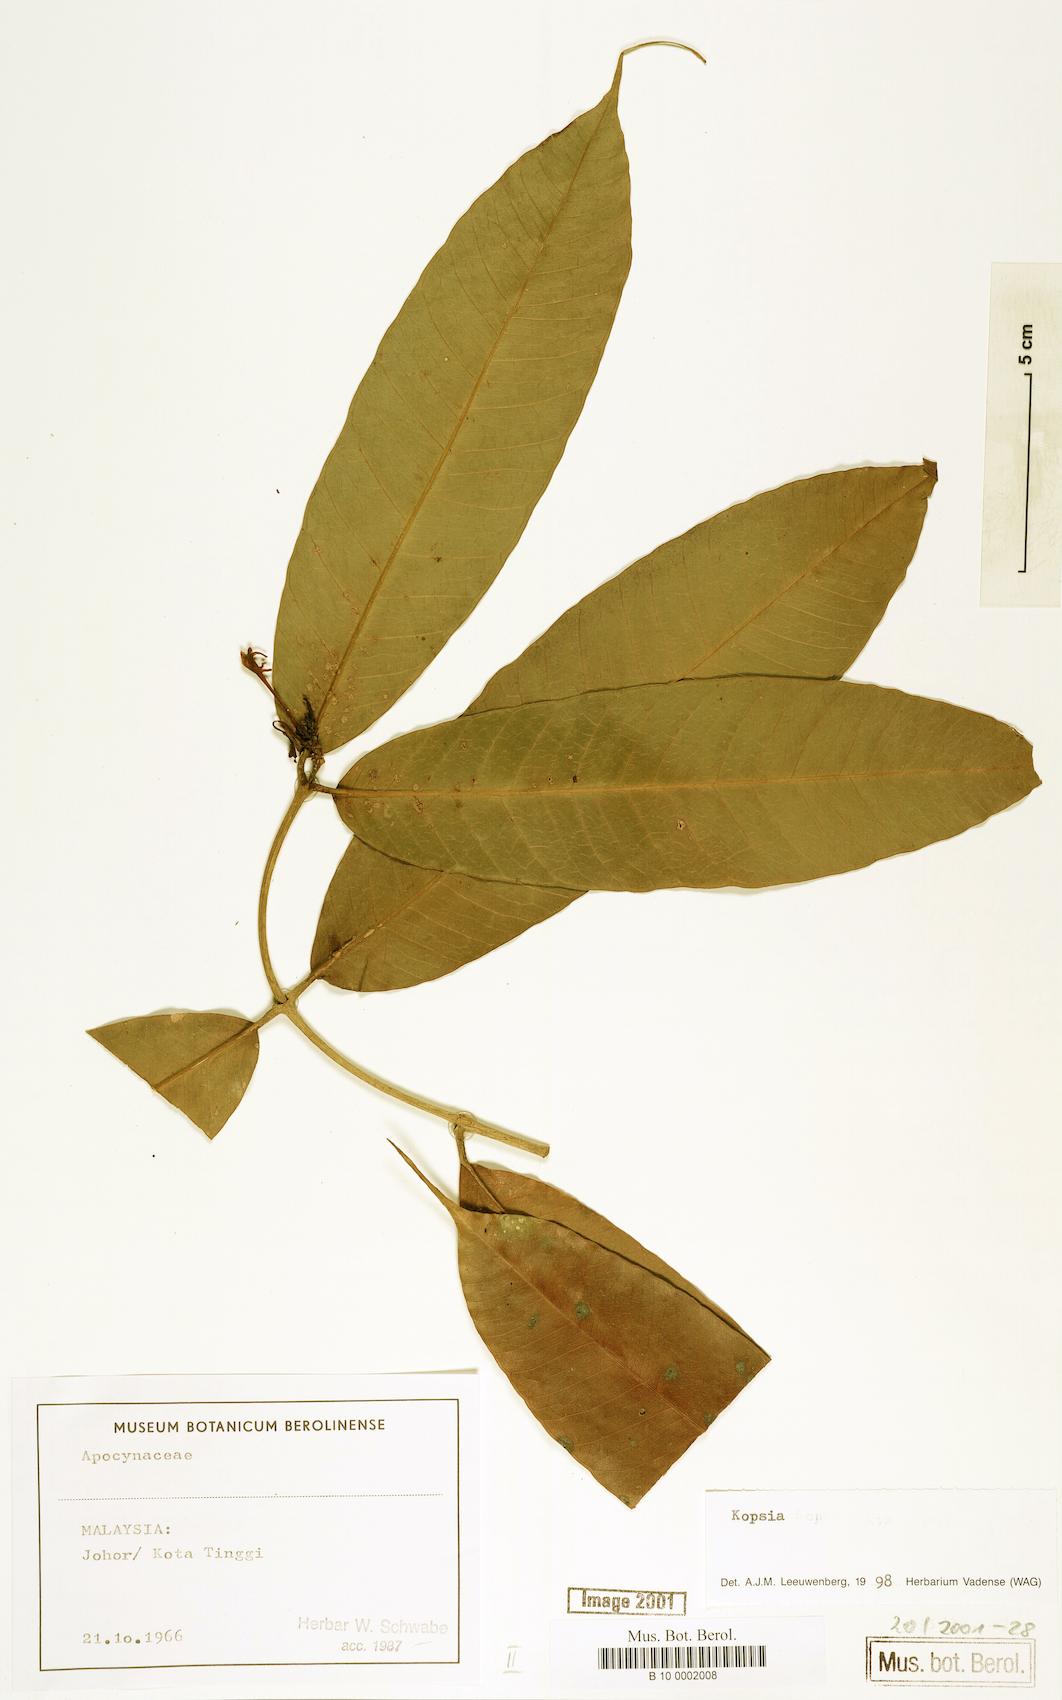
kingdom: Plantae
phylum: Tracheophyta
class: Magnoliopsida
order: Gentianales
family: Apocynaceae
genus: Kopsia
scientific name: Kopsia
